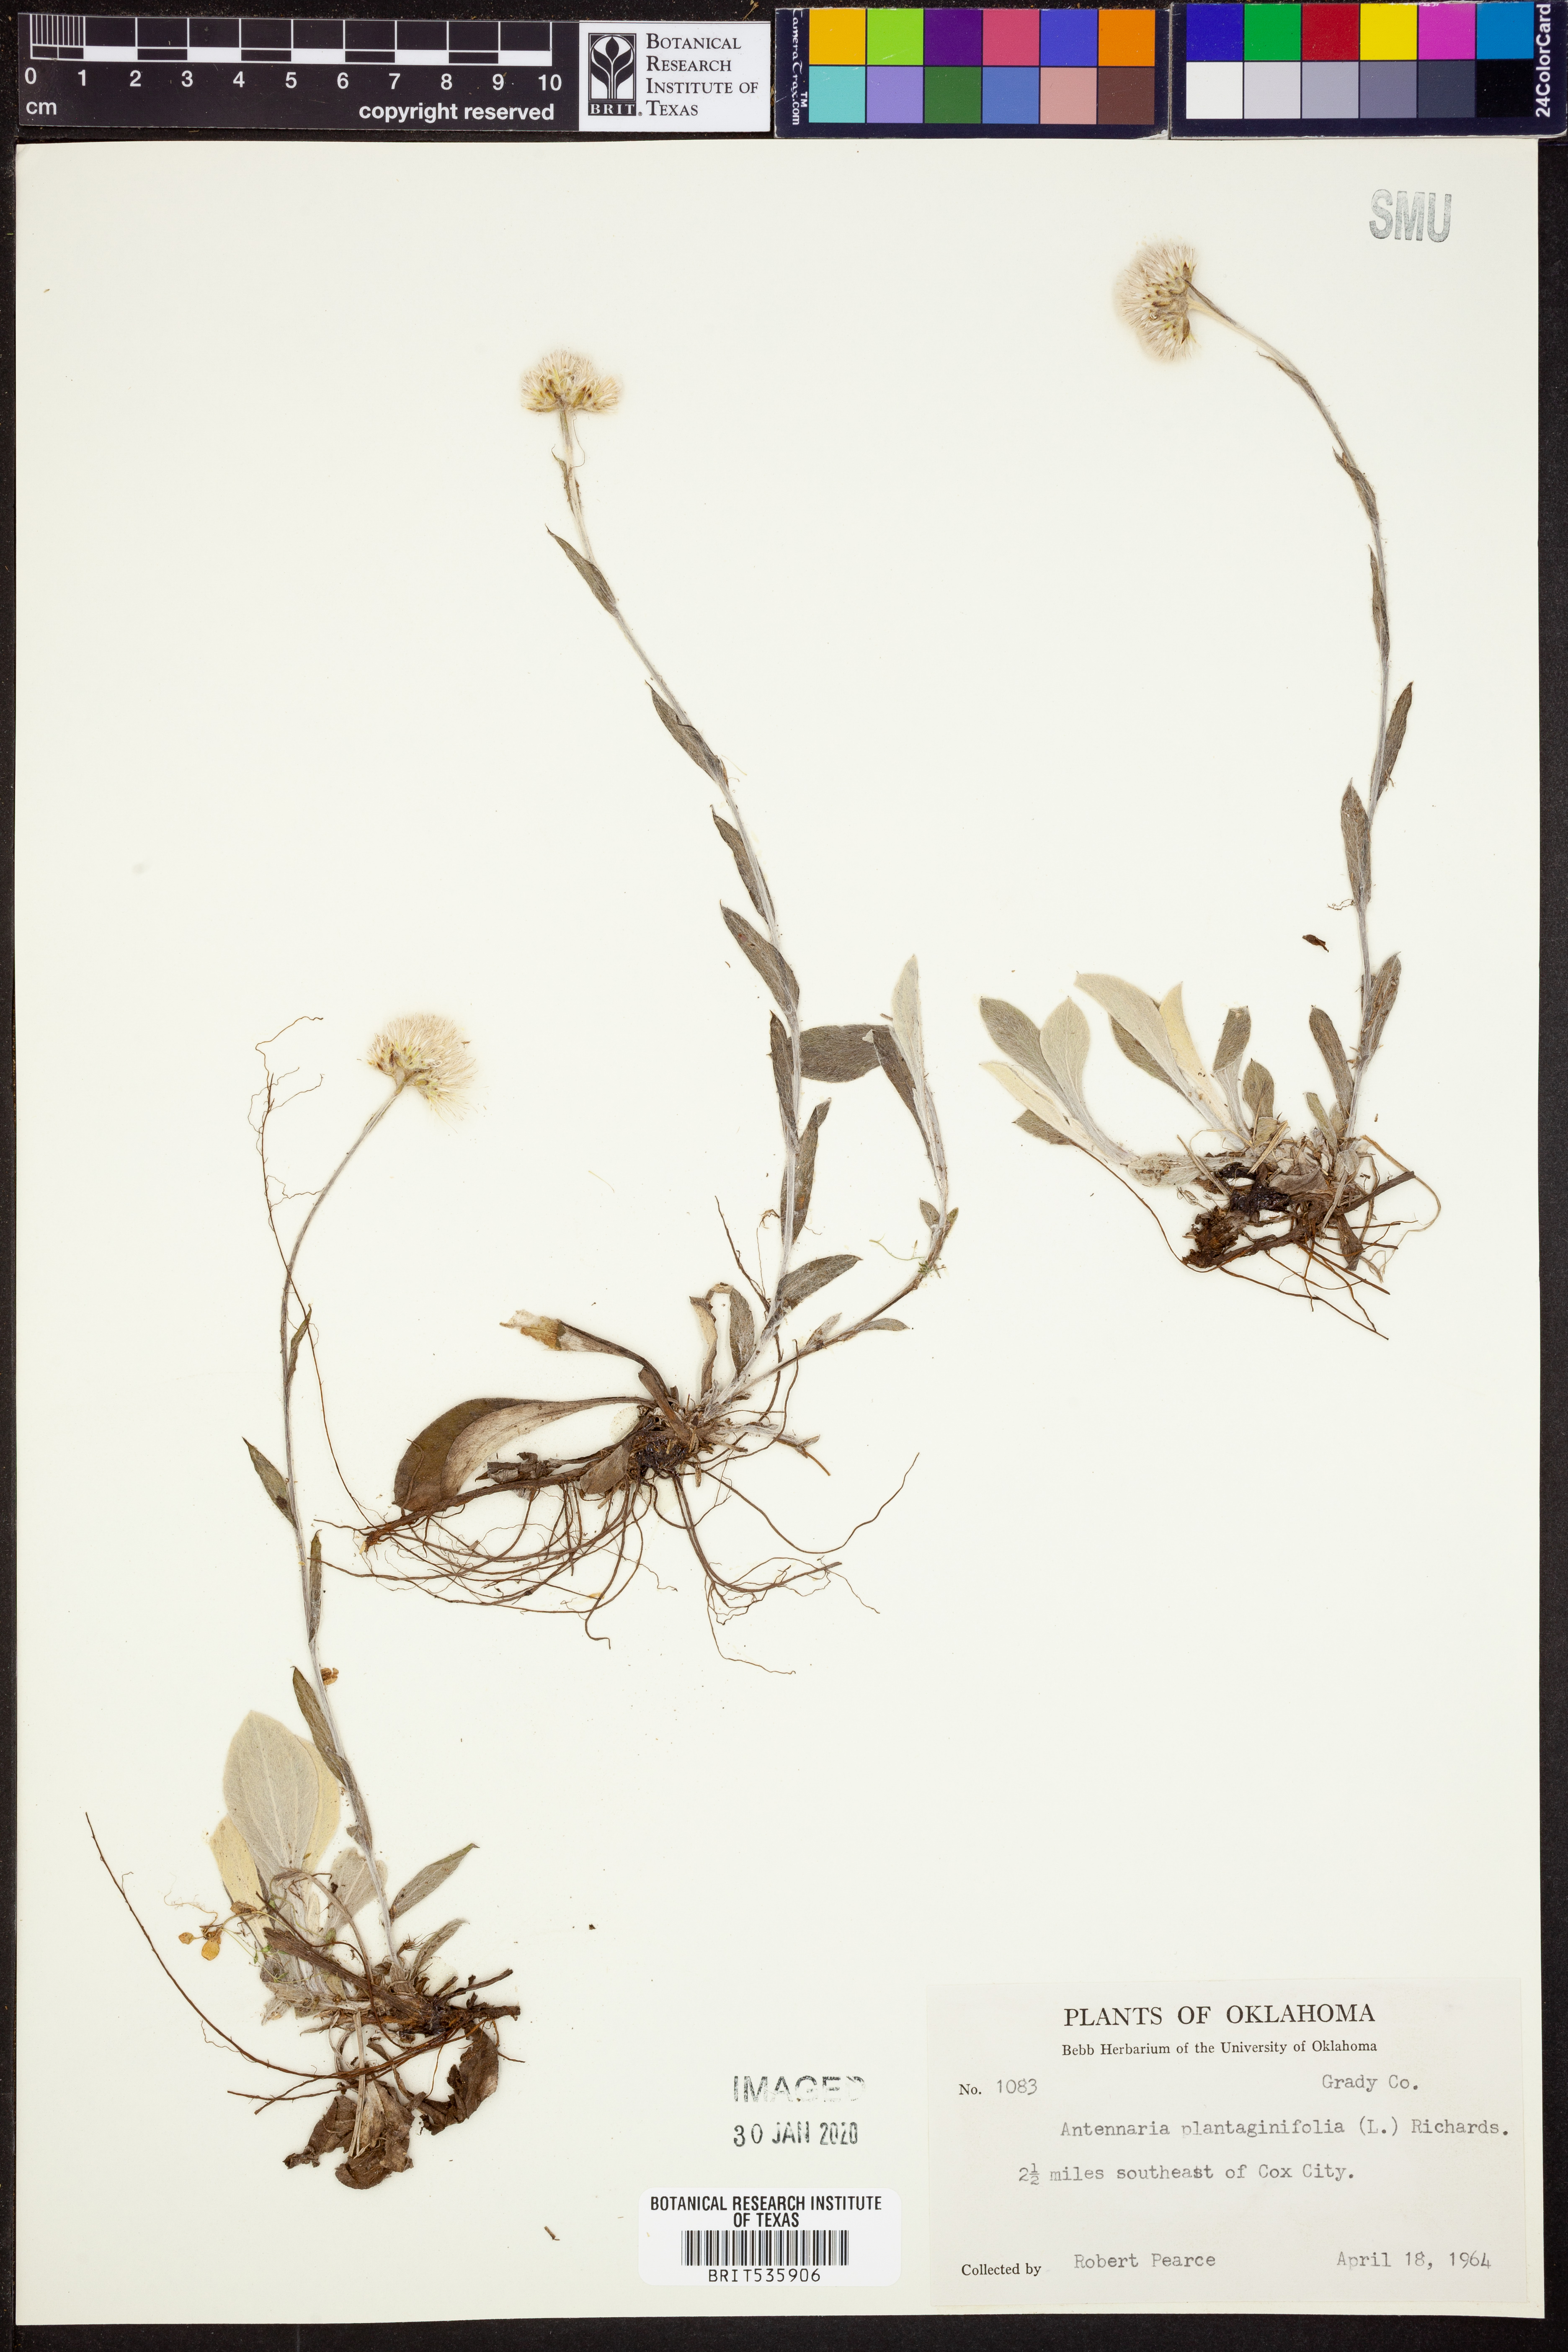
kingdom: Plantae
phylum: Tracheophyta
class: Magnoliopsida
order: Asterales
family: Asteraceae
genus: Antennaria
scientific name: Antennaria plantaginifolia
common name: Plantain-leaved pussytoes
